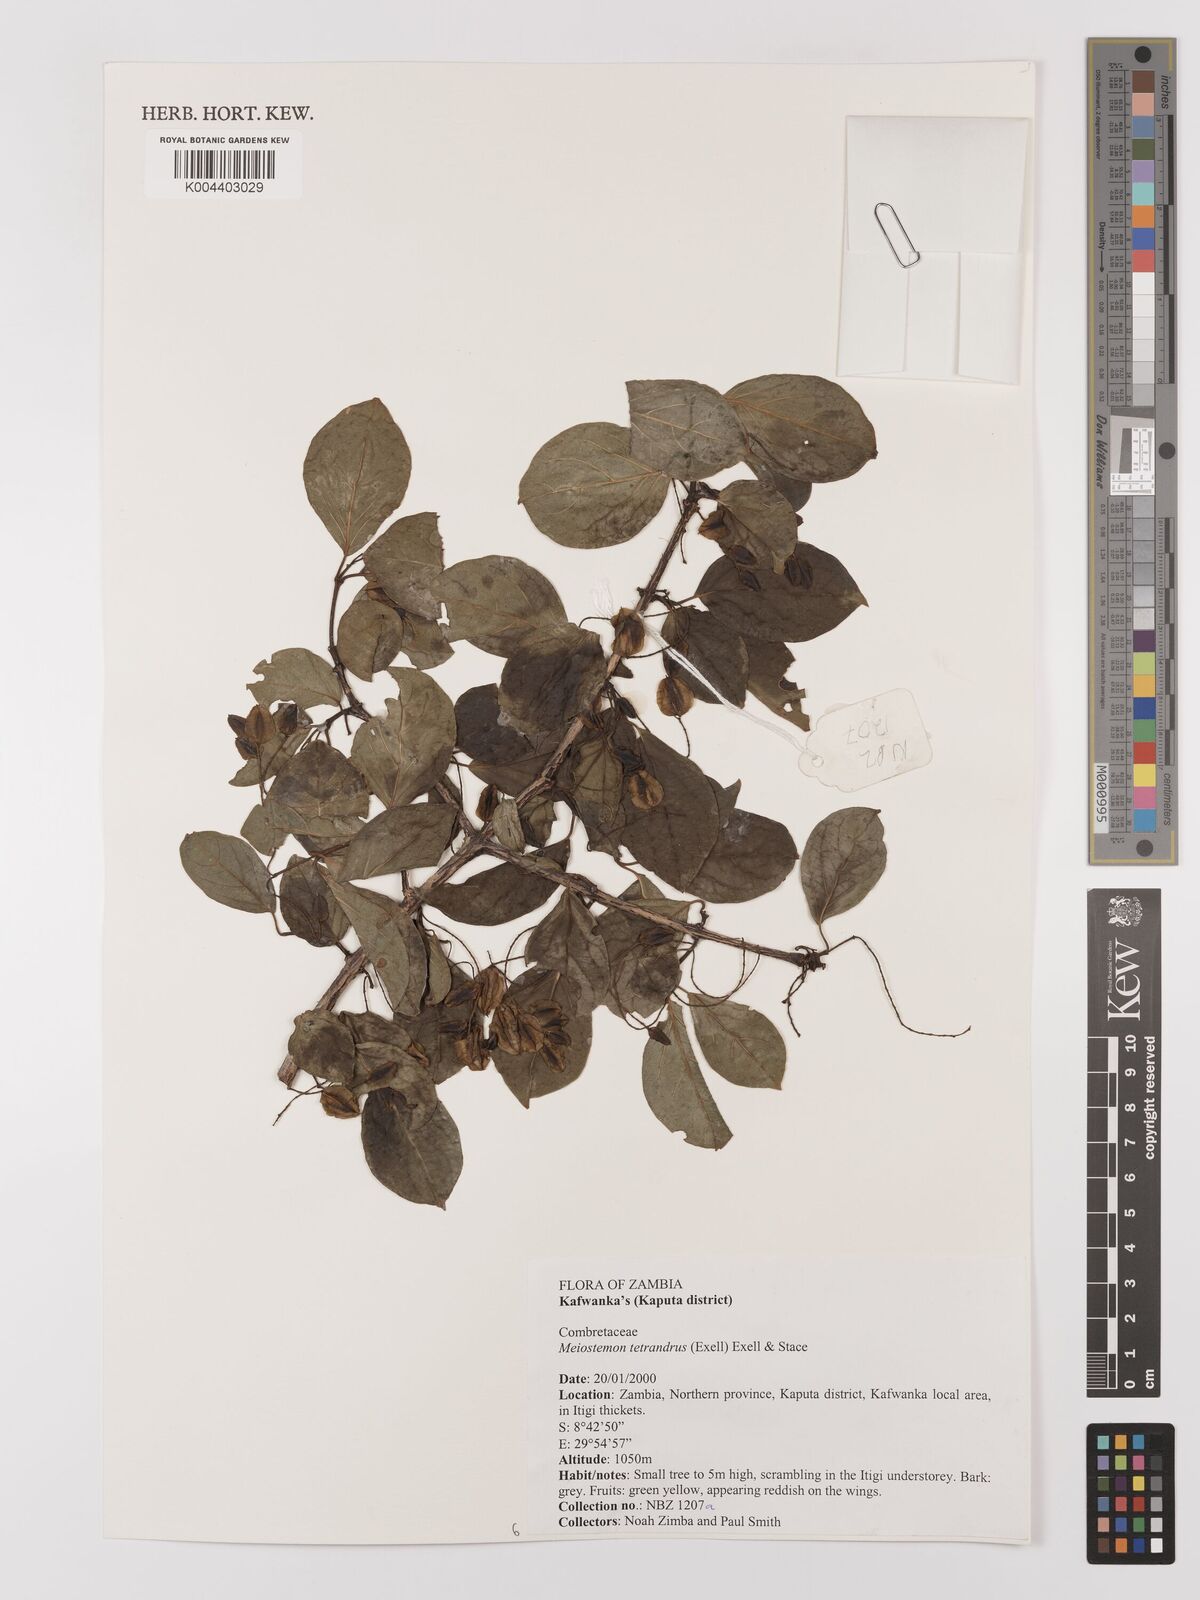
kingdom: Plantae
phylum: Tracheophyta
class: Magnoliopsida
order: Myrtales
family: Combretaceae
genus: Combretum
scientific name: Combretum tetrandrum
